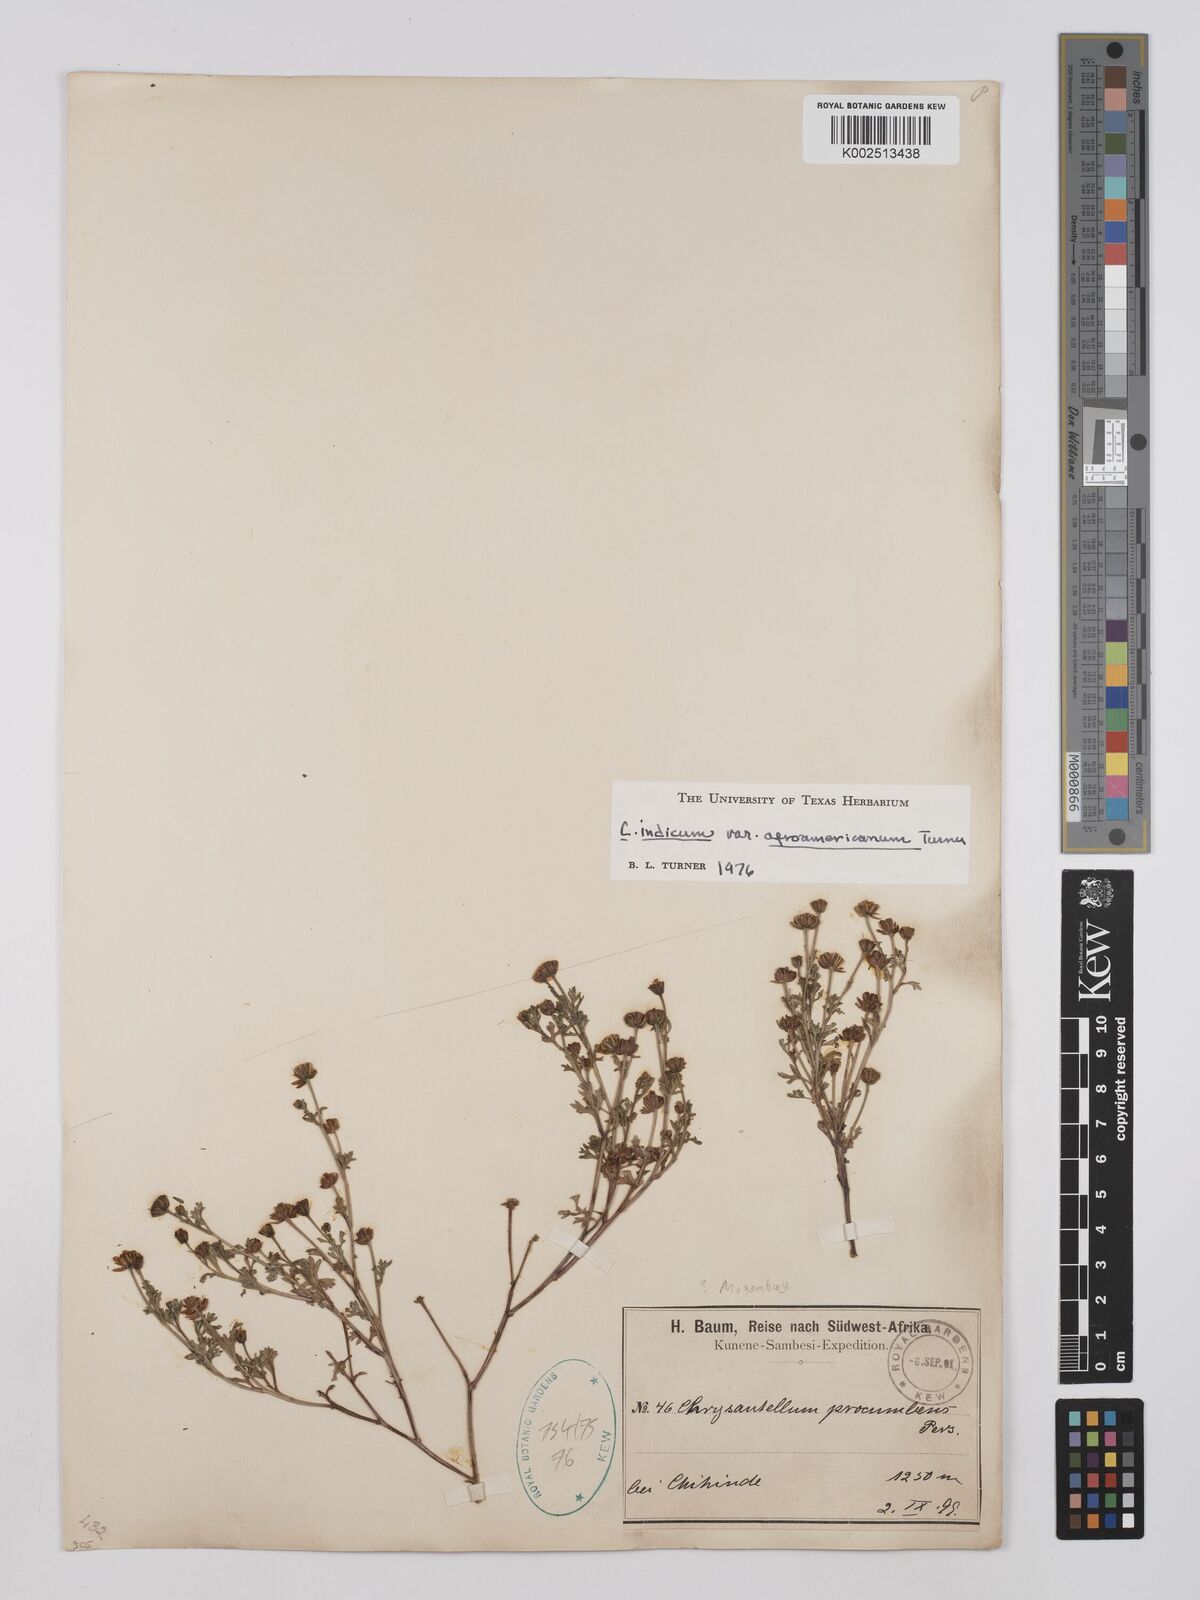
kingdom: Plantae
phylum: Tracheophyta
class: Magnoliopsida
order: Asterales
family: Asteraceae
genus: Chrysanthellum
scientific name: Chrysanthellum indicum
